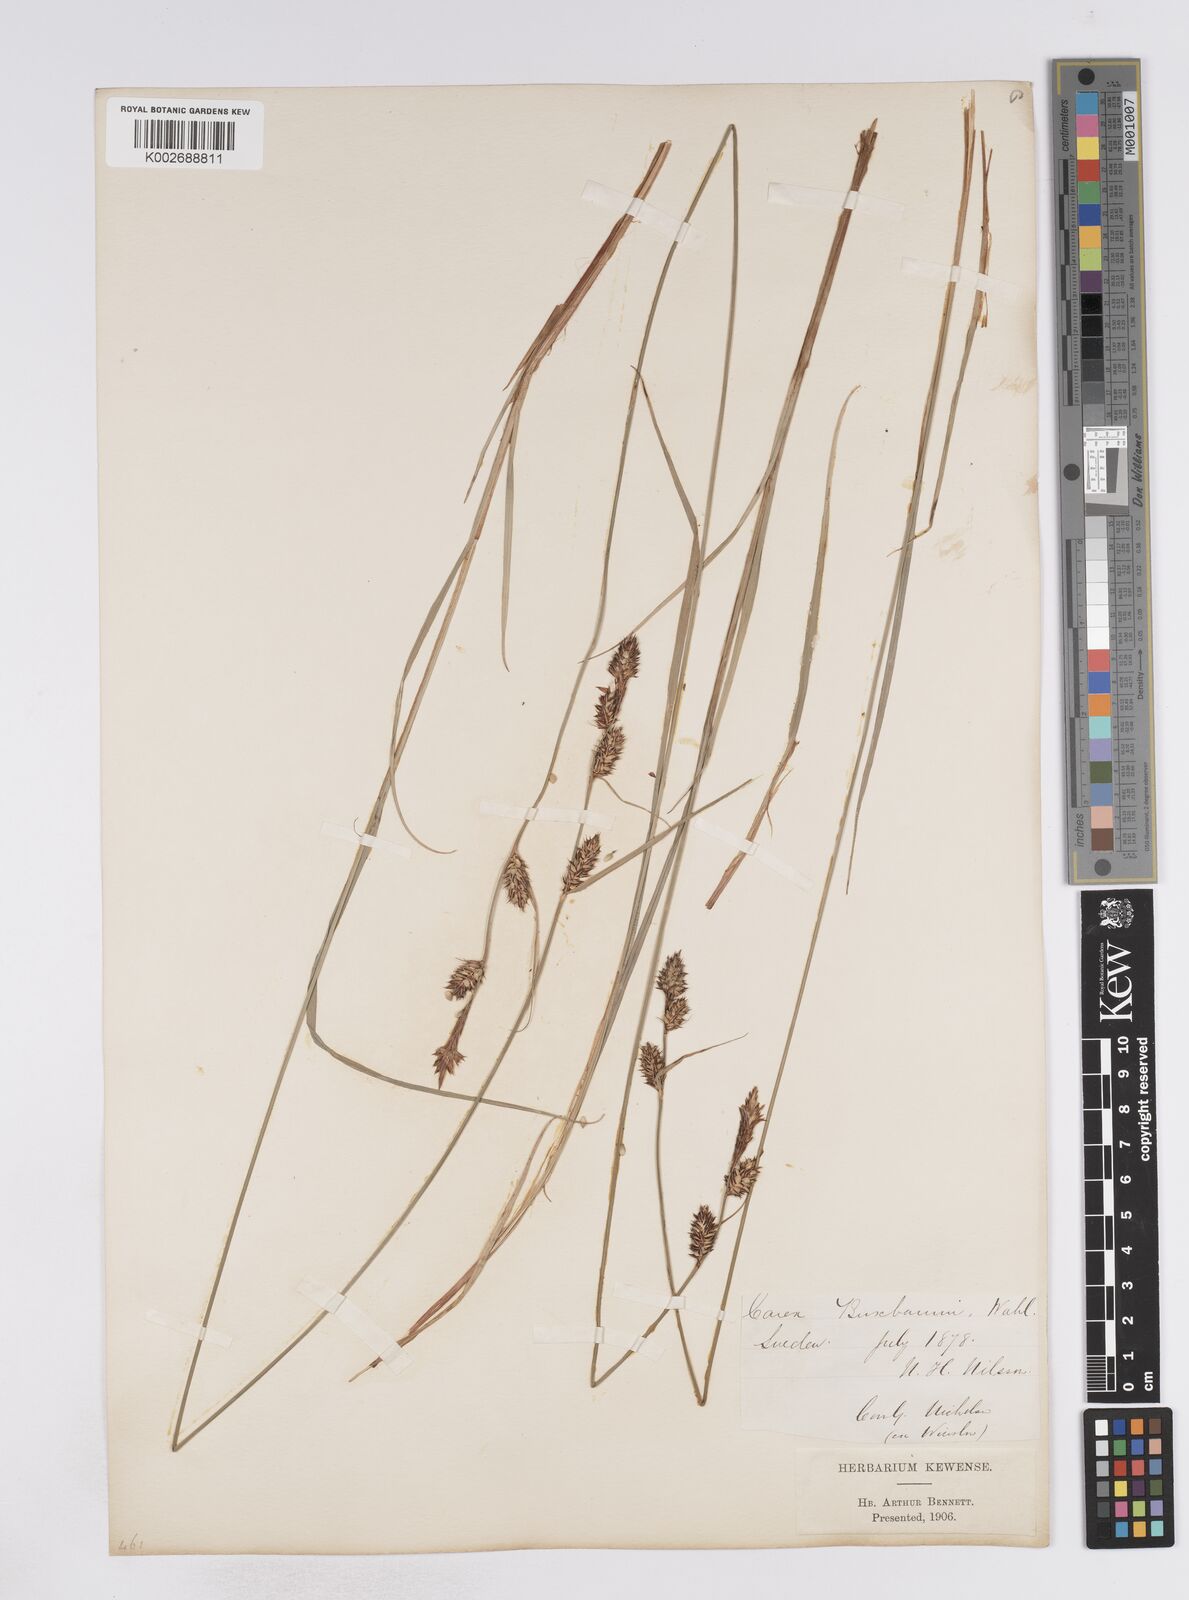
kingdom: Plantae
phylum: Tracheophyta
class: Liliopsida
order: Poales
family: Cyperaceae
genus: Carex
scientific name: Carex buxbaumii
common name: Club sedge
